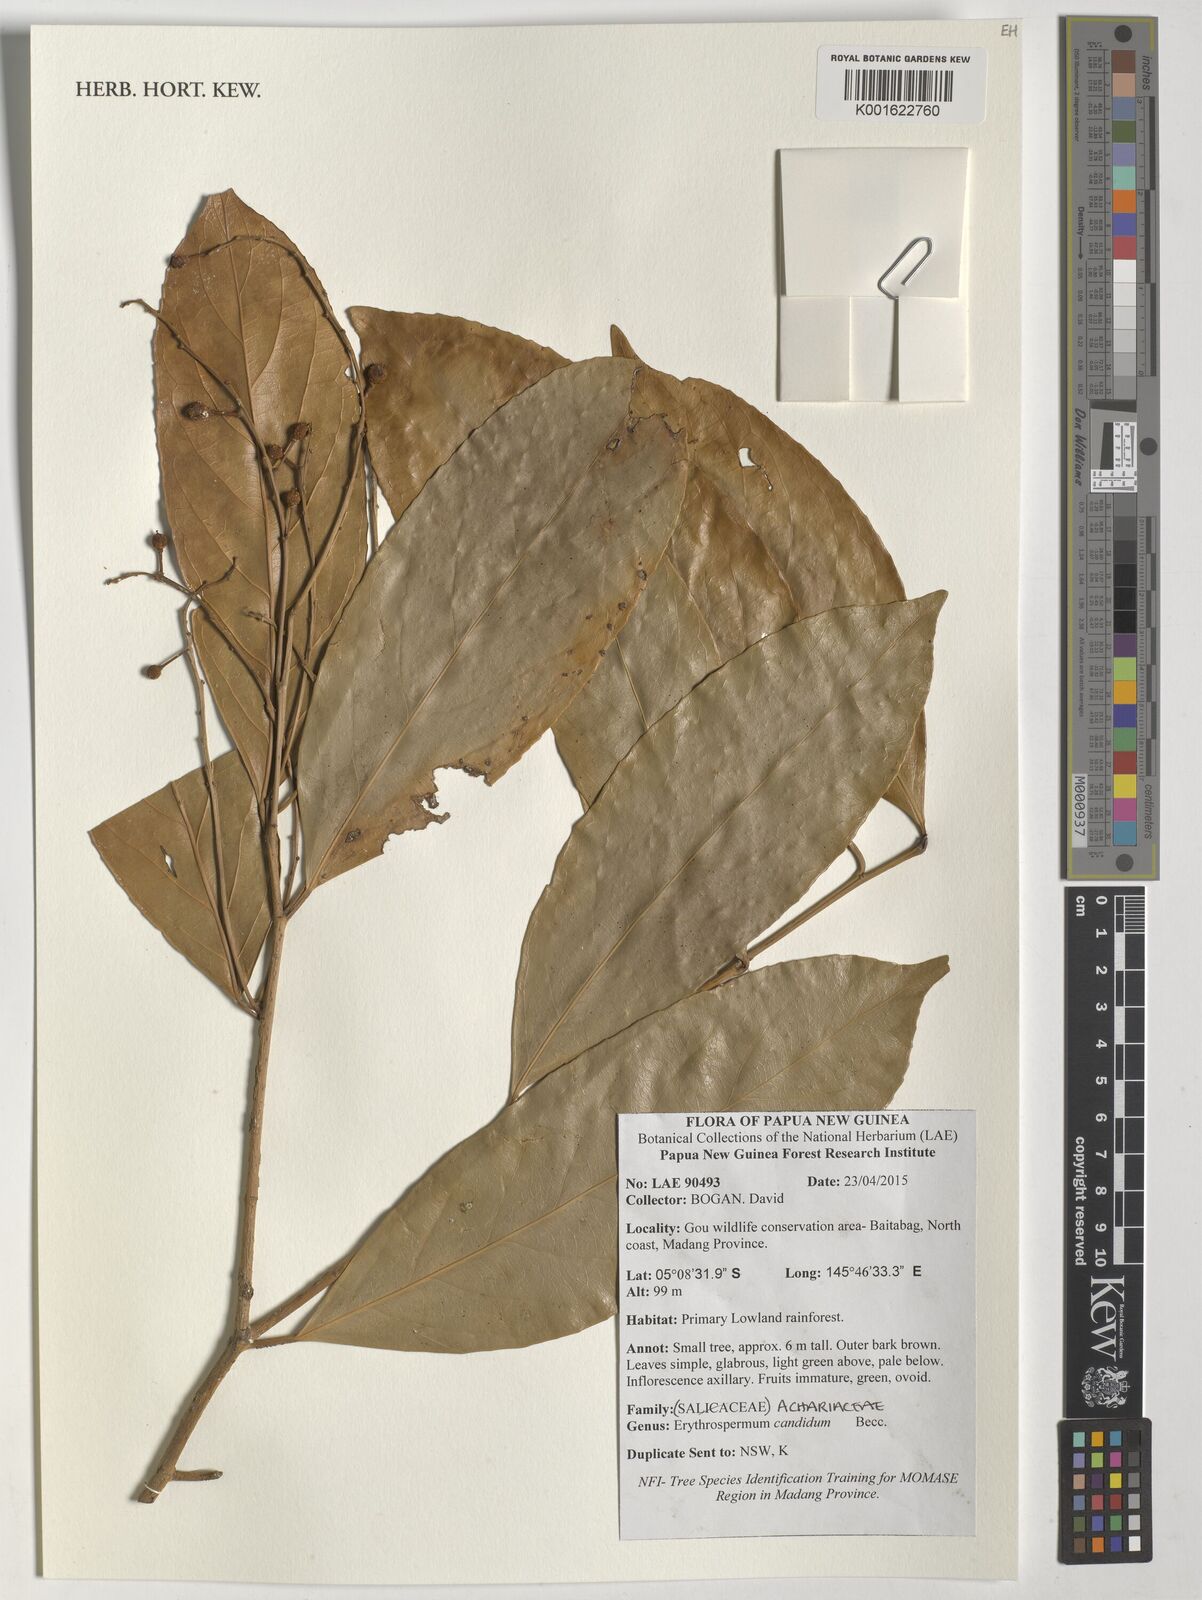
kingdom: Plantae
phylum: Tracheophyta
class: Magnoliopsida
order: Malpighiales
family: Achariaceae
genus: Erythrospermum
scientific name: Erythrospermum candidum
